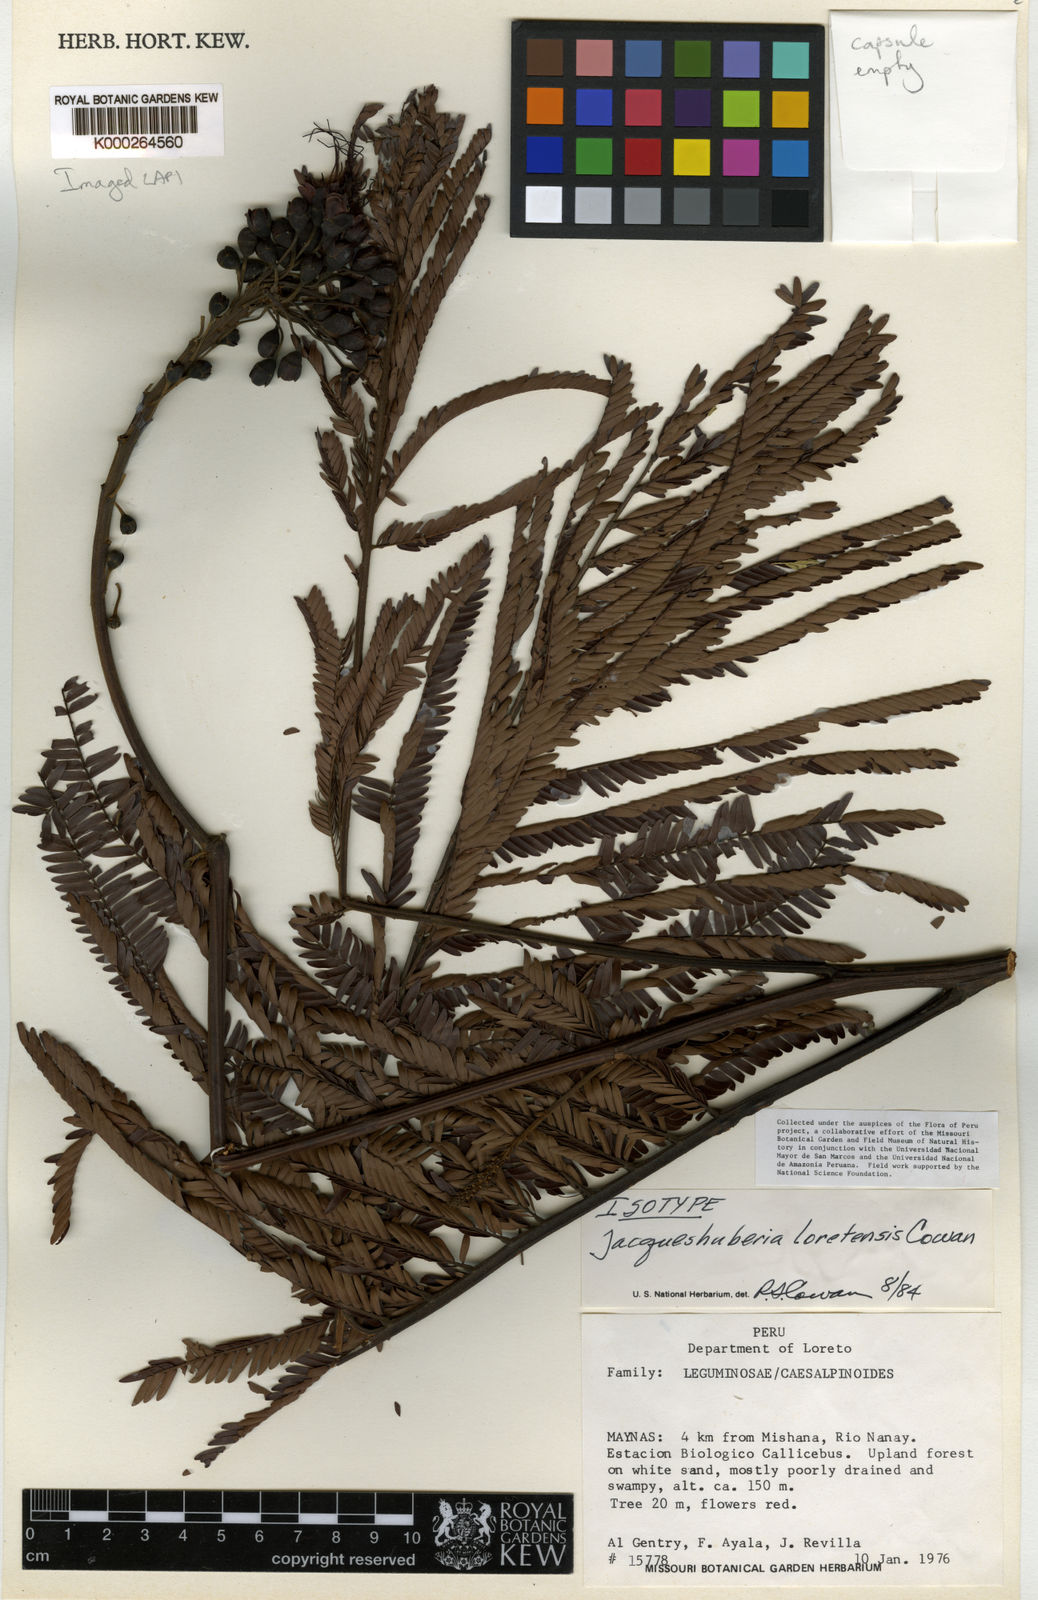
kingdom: Plantae
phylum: Tracheophyta
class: Magnoliopsida
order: Fabales
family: Fabaceae
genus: Jacqueshuberia
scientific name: Jacqueshuberia loretensis
